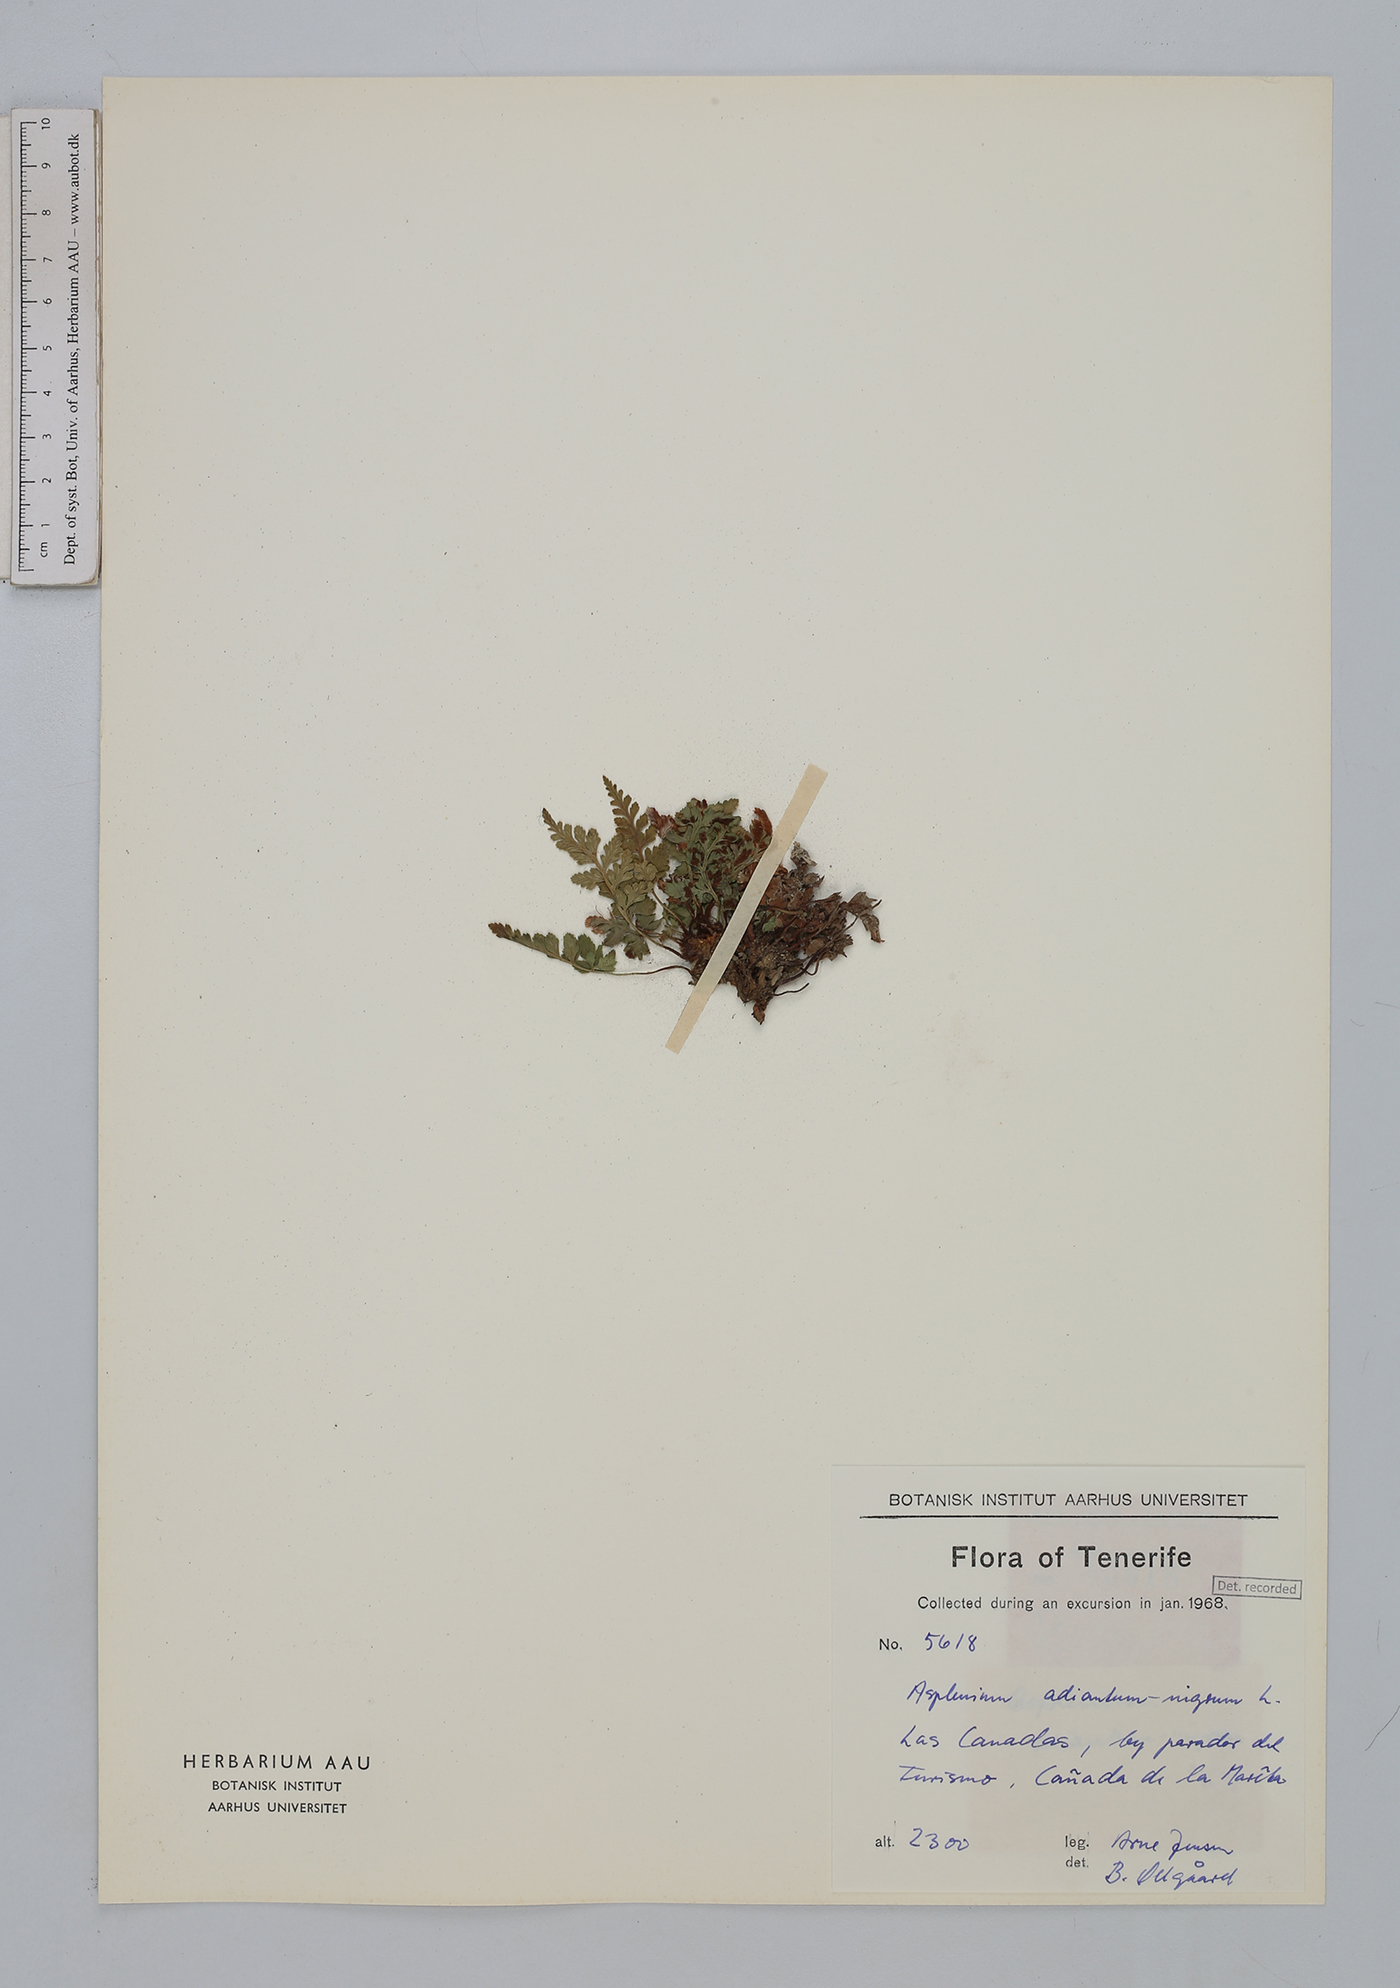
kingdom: Plantae
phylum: Tracheophyta
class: Polypodiopsida
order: Polypodiales
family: Aspleniaceae
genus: Asplenium
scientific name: Asplenium adiantum-nigrum
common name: Black spleenwort
